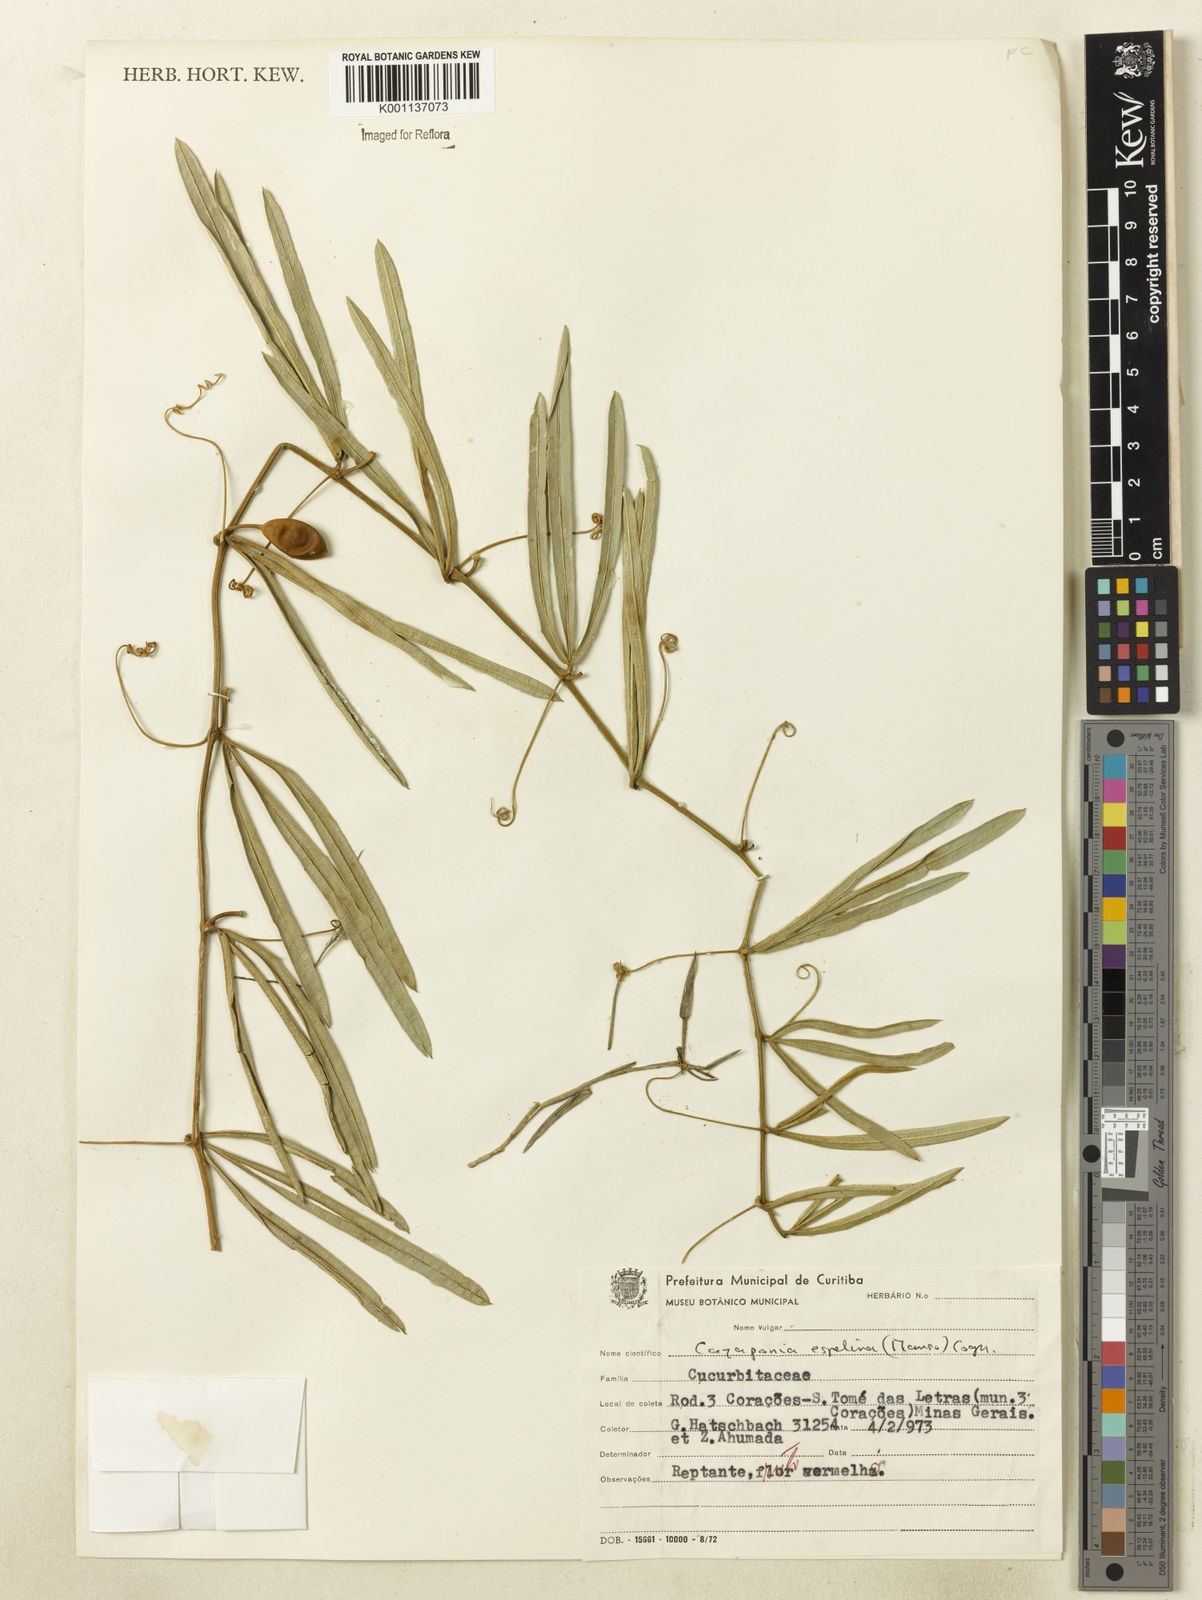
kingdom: Plantae
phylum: Tracheophyta
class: Magnoliopsida
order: Cucurbitales
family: Cucurbitaceae
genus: Cayaponia
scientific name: Cayaponia espelina
